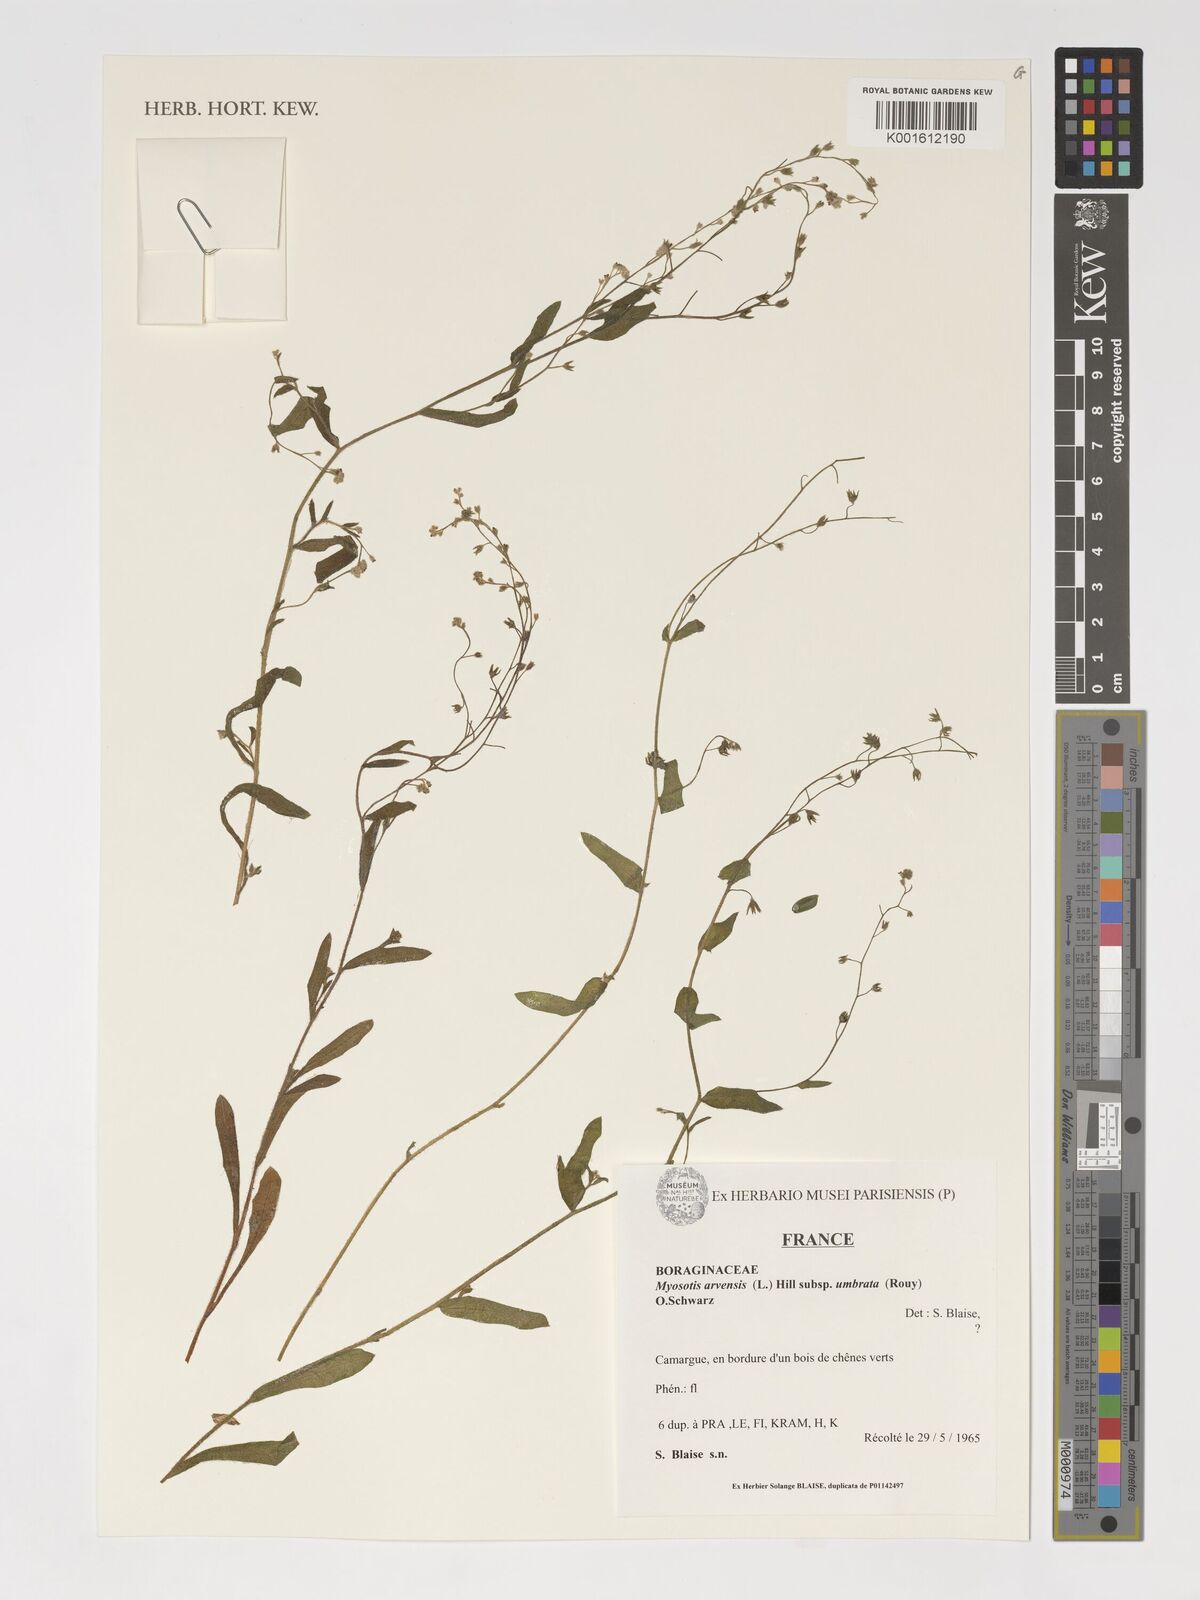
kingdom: Plantae
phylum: Tracheophyta
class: Magnoliopsida
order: Boraginales
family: Boraginaceae
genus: Myosotis
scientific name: Myosotis arvensis
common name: Field forget-me-not
